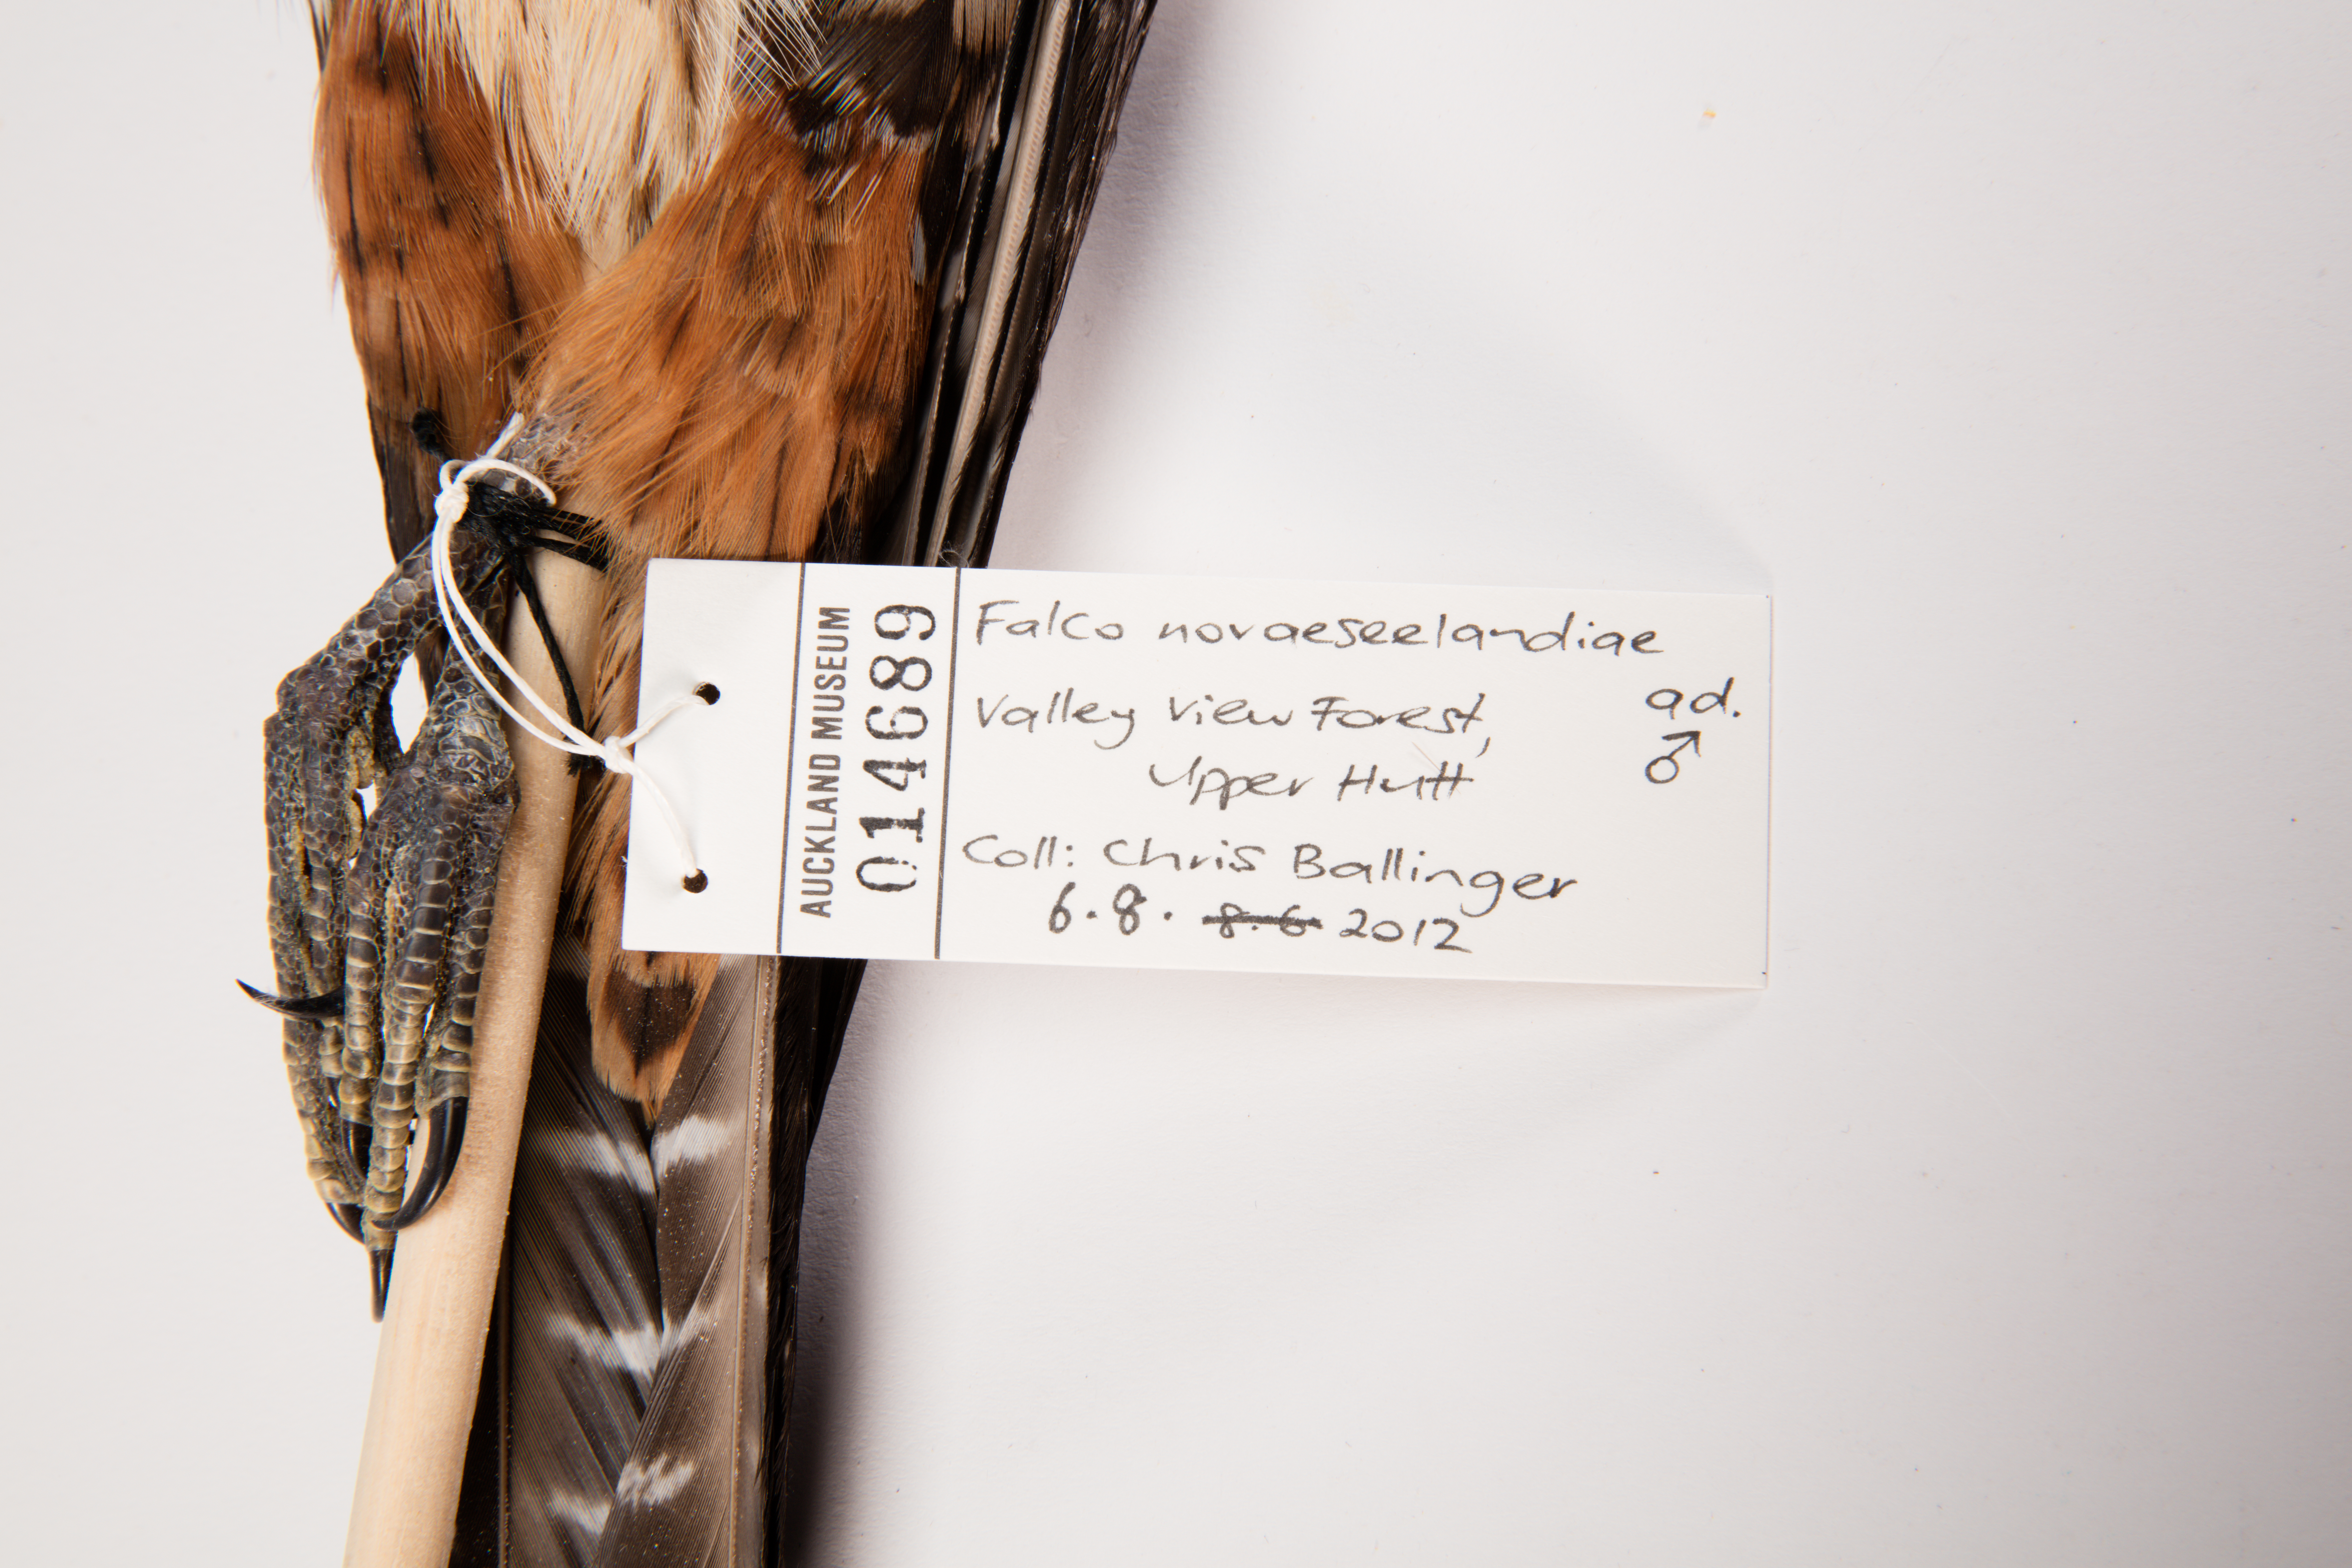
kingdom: Animalia
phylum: Chordata
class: Aves
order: Falconiformes
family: Falconidae
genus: Falco
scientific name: Falco novaeseelandiae
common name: New zealand falcon
